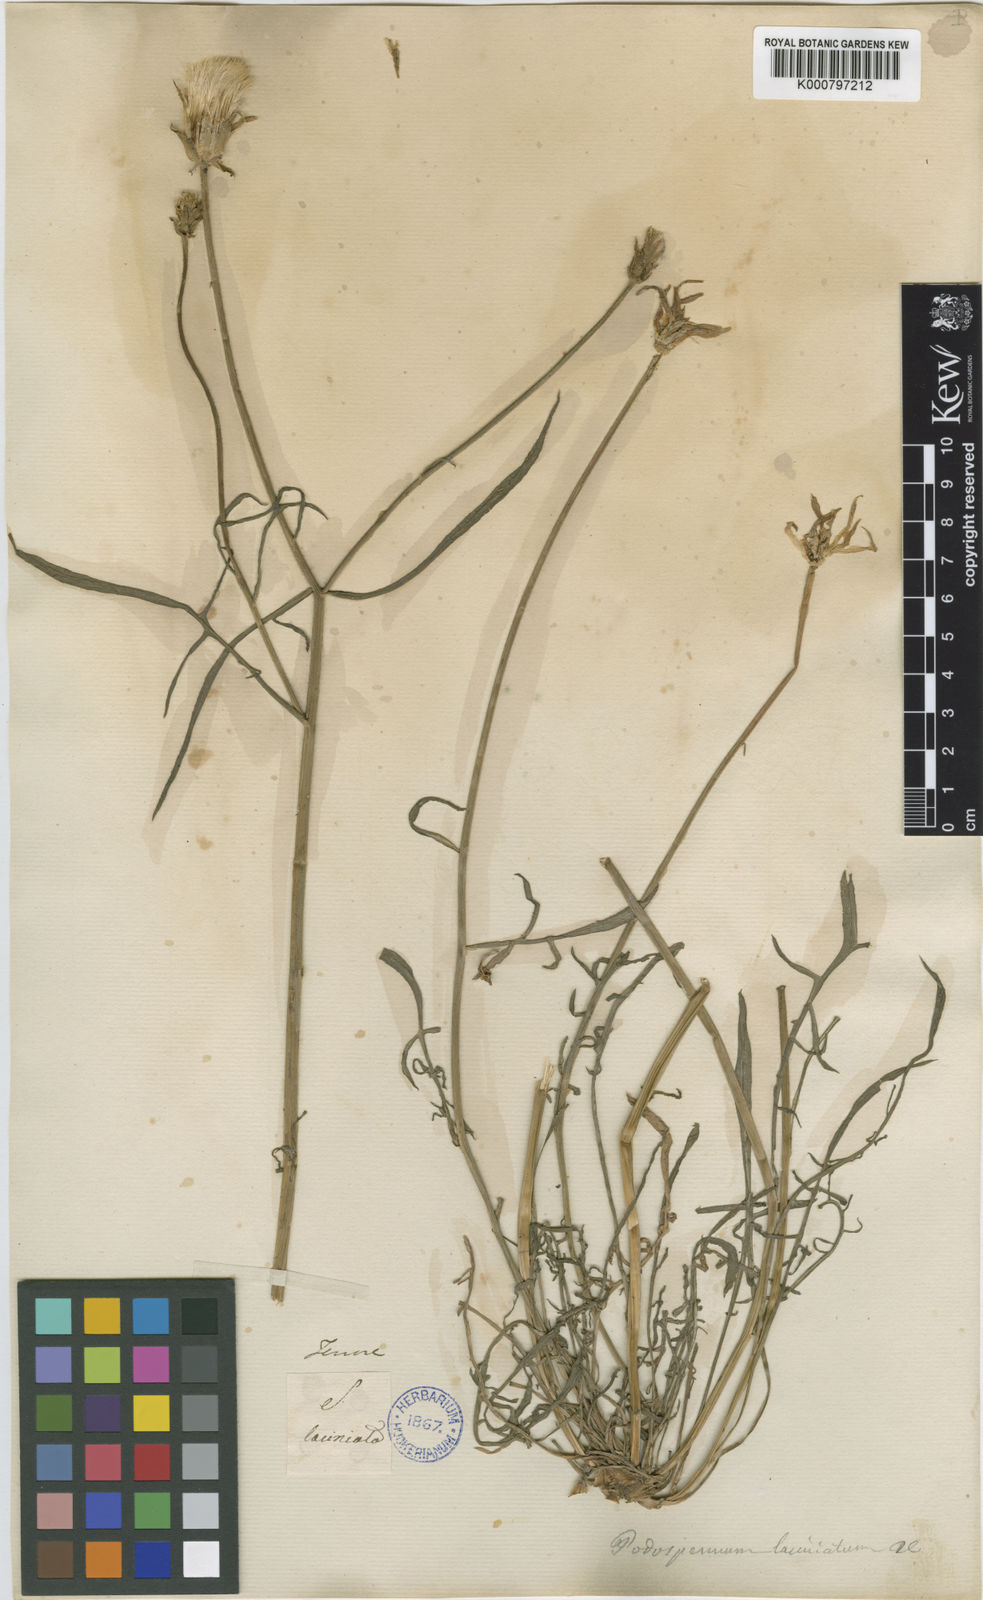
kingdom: Plantae
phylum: Tracheophyta
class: Magnoliopsida
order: Asterales
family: Asteraceae
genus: Scorzonera
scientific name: Scorzonera laciniata
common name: Cutleaf vipergrass
